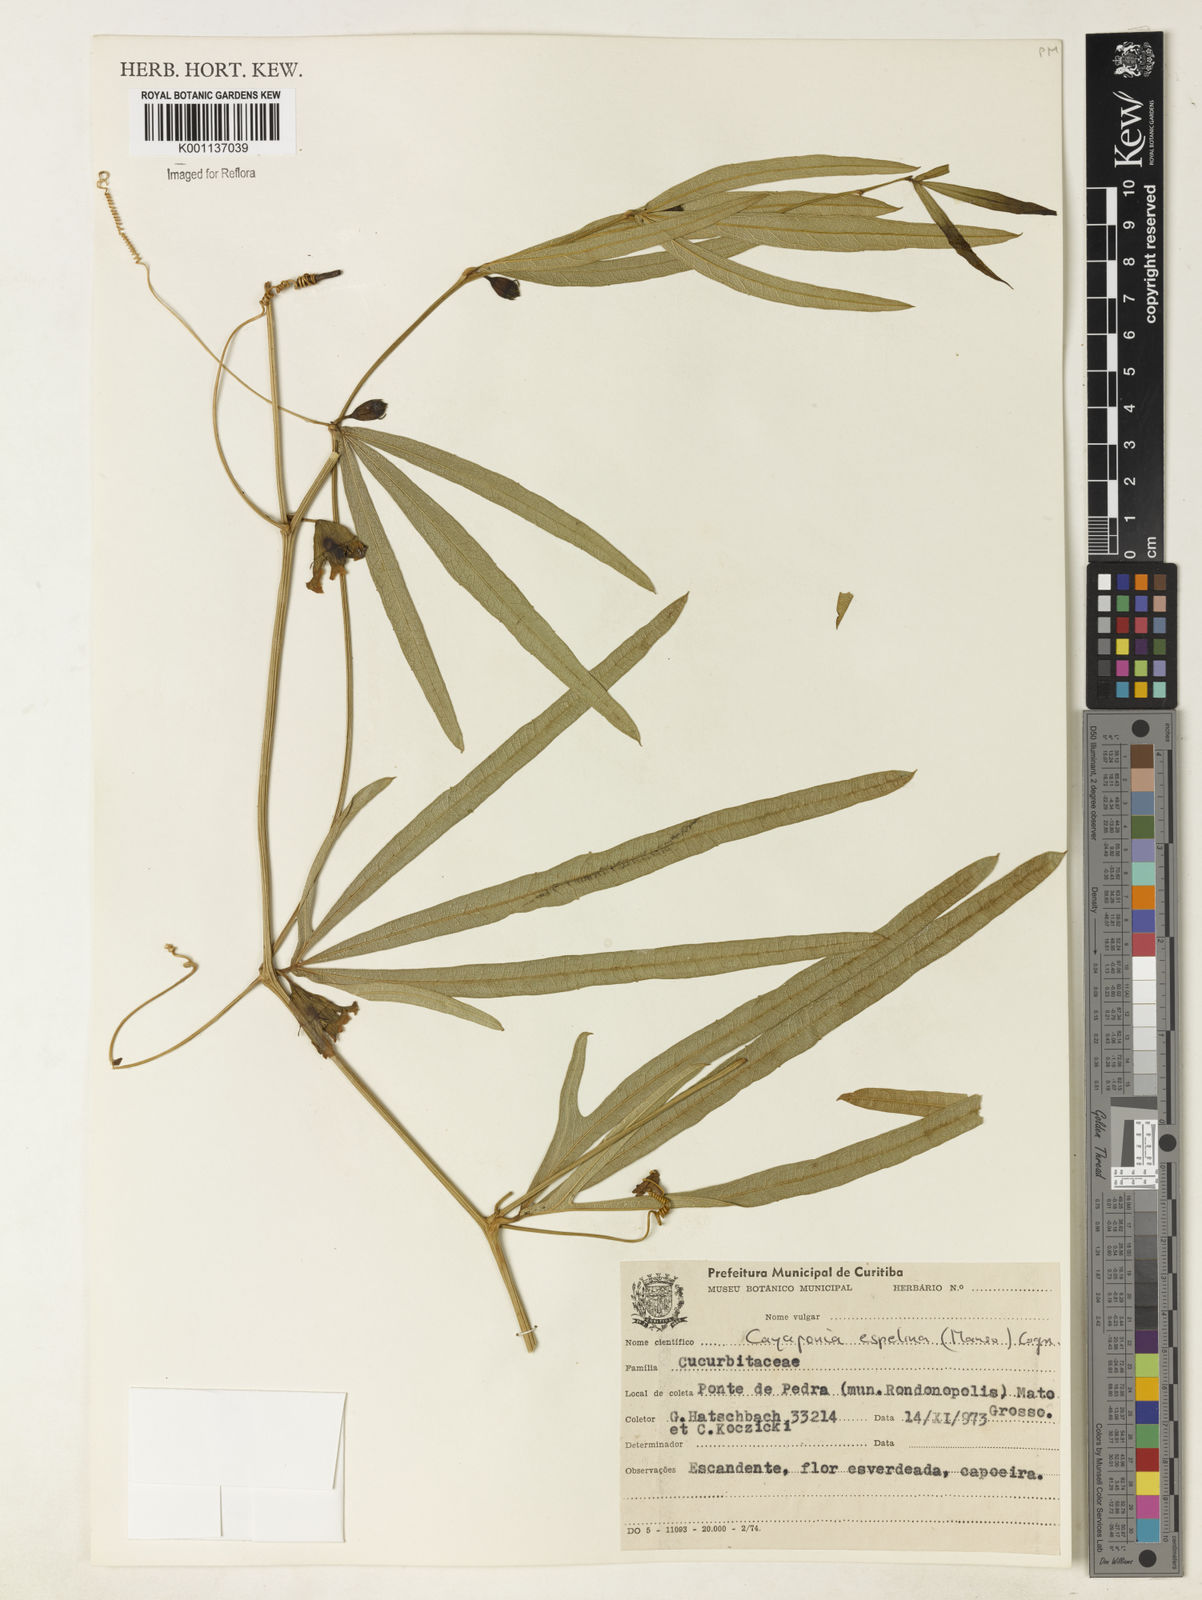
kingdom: Plantae
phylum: Tracheophyta
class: Magnoliopsida
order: Cucurbitales
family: Cucurbitaceae
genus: Cayaponia
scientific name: Cayaponia espelina
